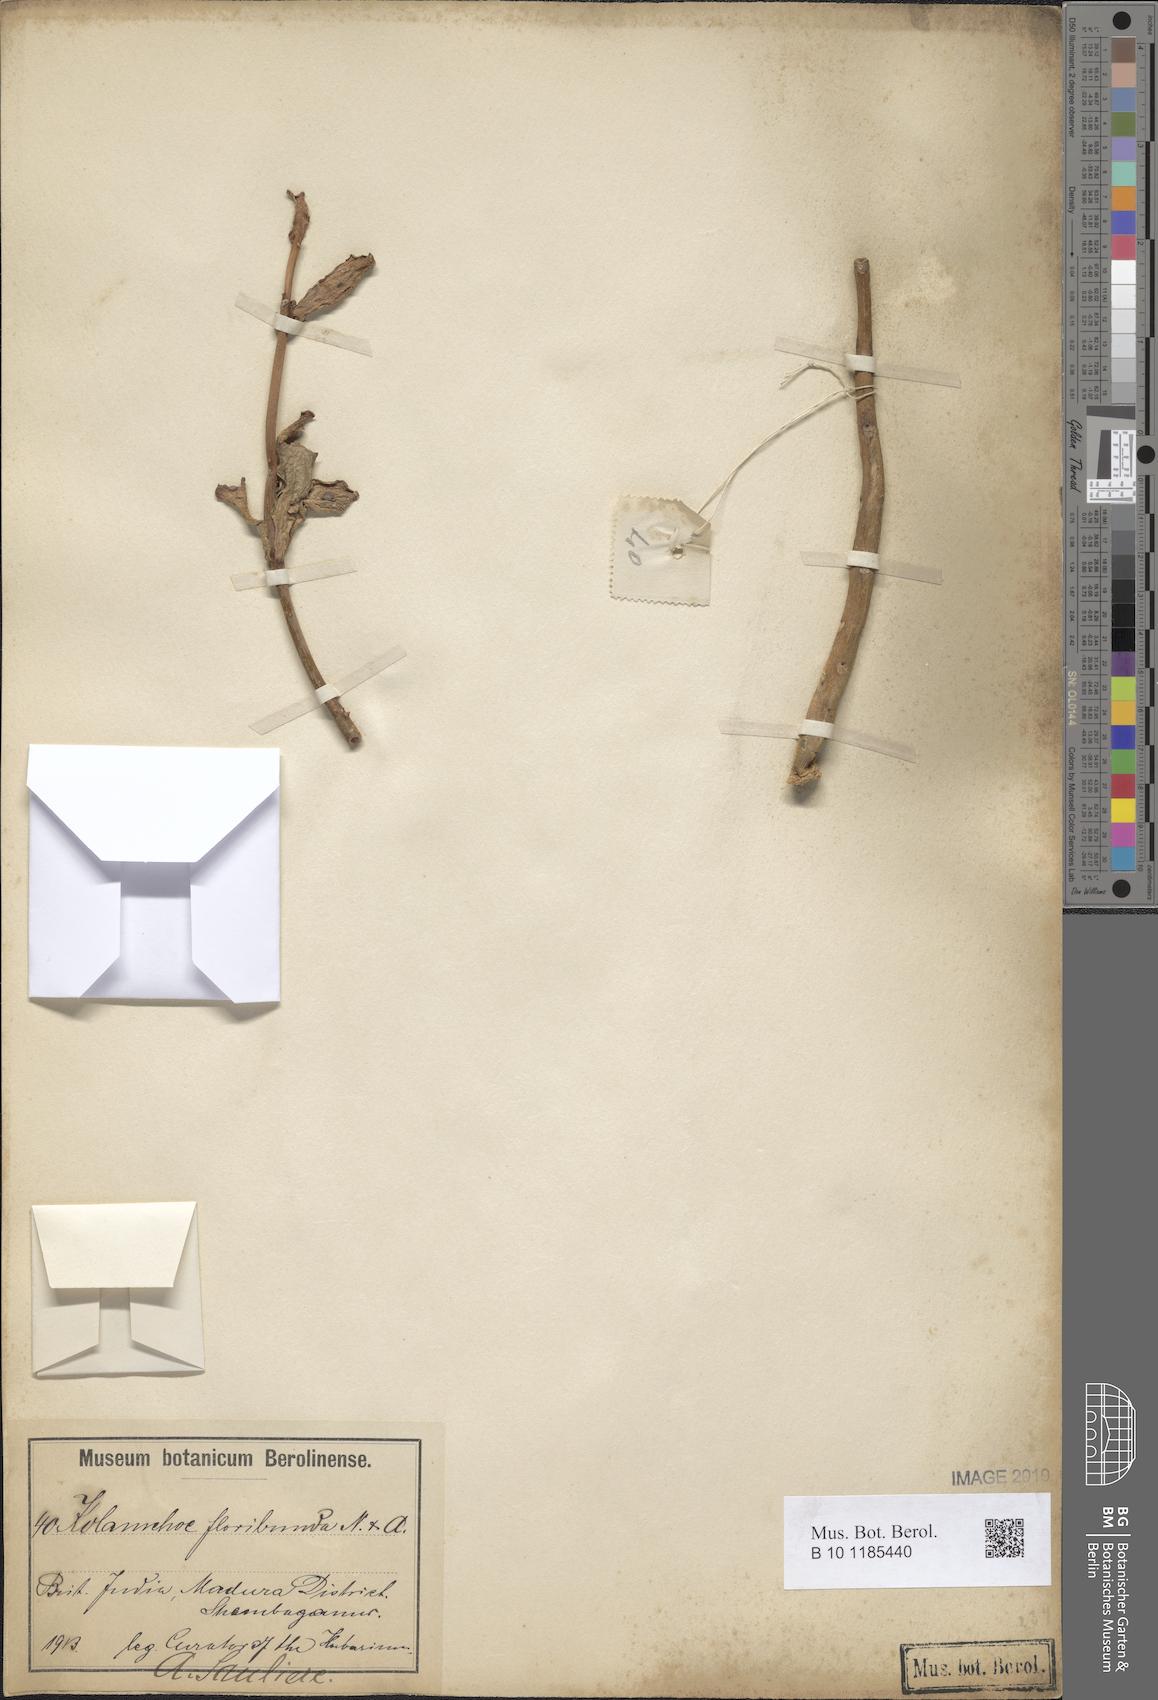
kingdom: Plantae
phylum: Tracheophyta
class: Magnoliopsida
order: Saxifragales
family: Crassulaceae
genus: Kalanchoe
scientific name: Kalanchoe floribunda
